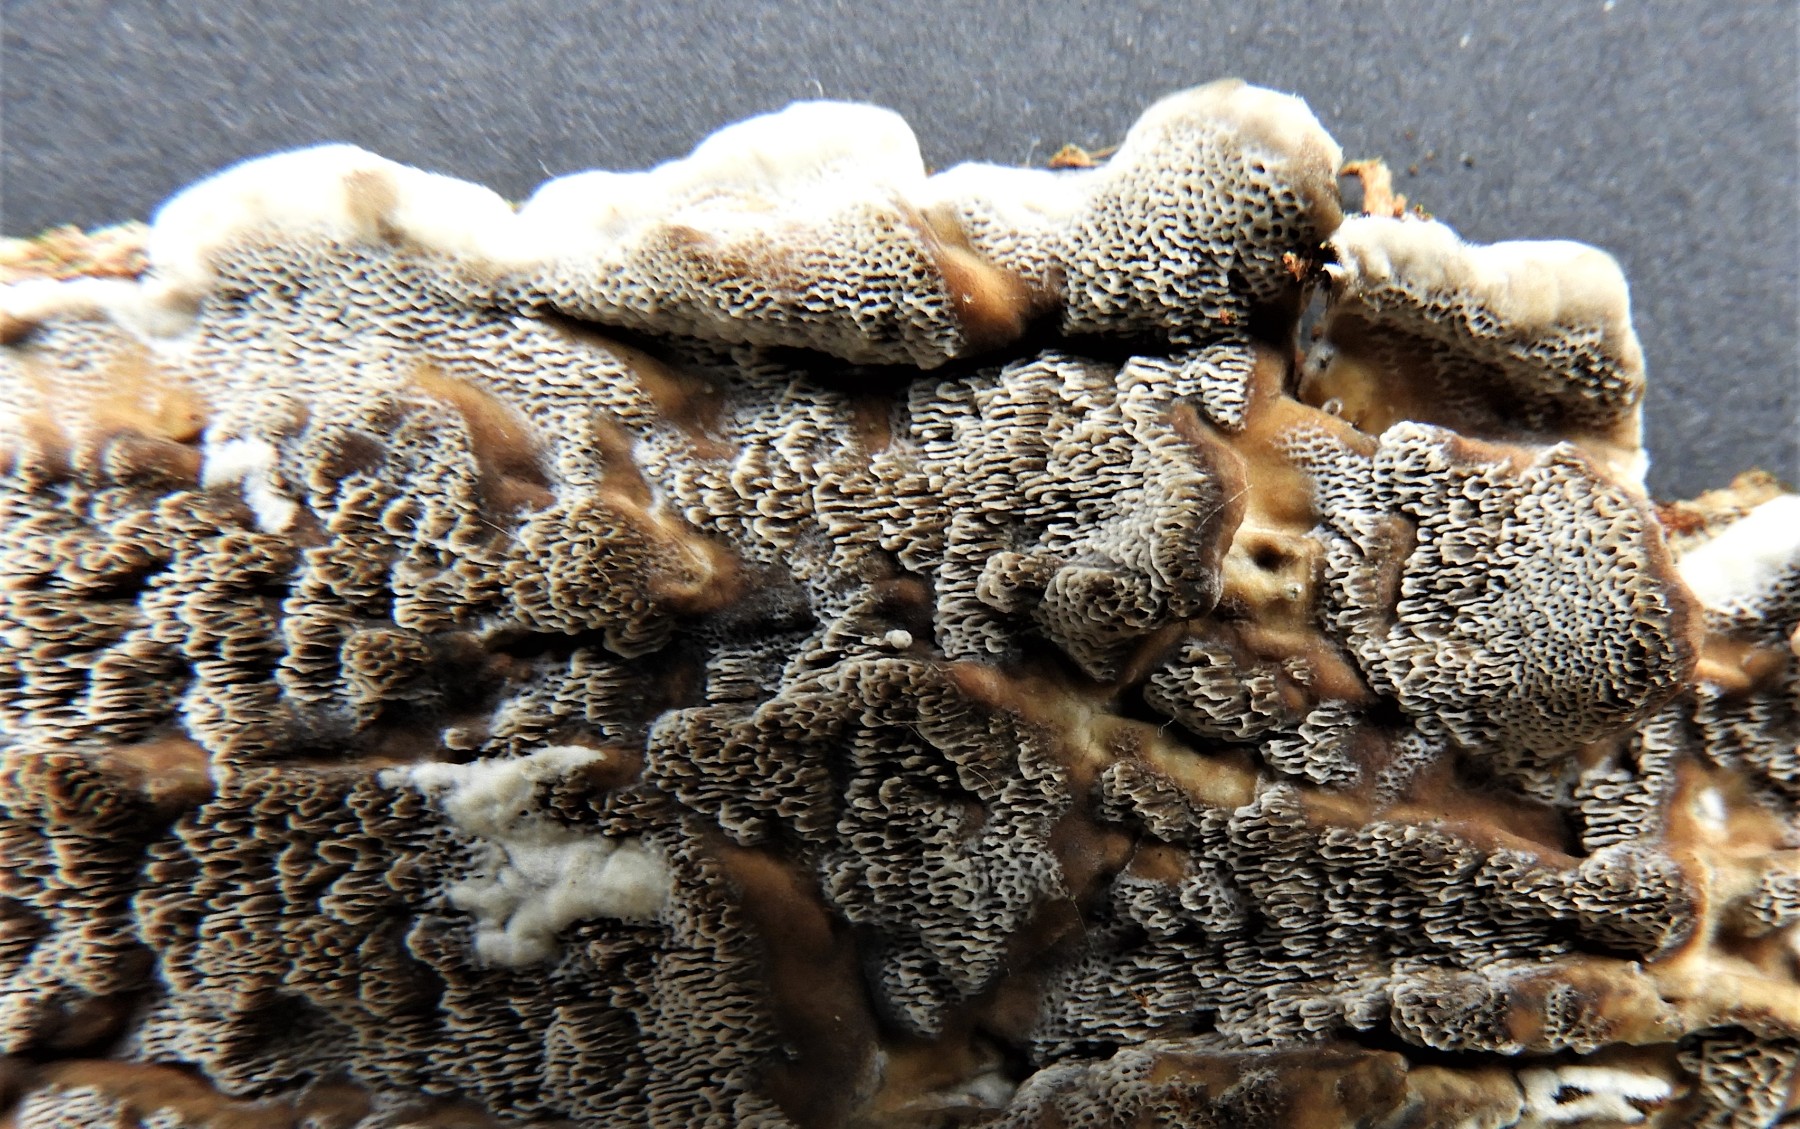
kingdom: Fungi
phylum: Basidiomycota
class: Agaricomycetes
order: Polyporales
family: Phanerochaetaceae
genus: Bjerkandera
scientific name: Bjerkandera adusta
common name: sveden sodporesvamp
